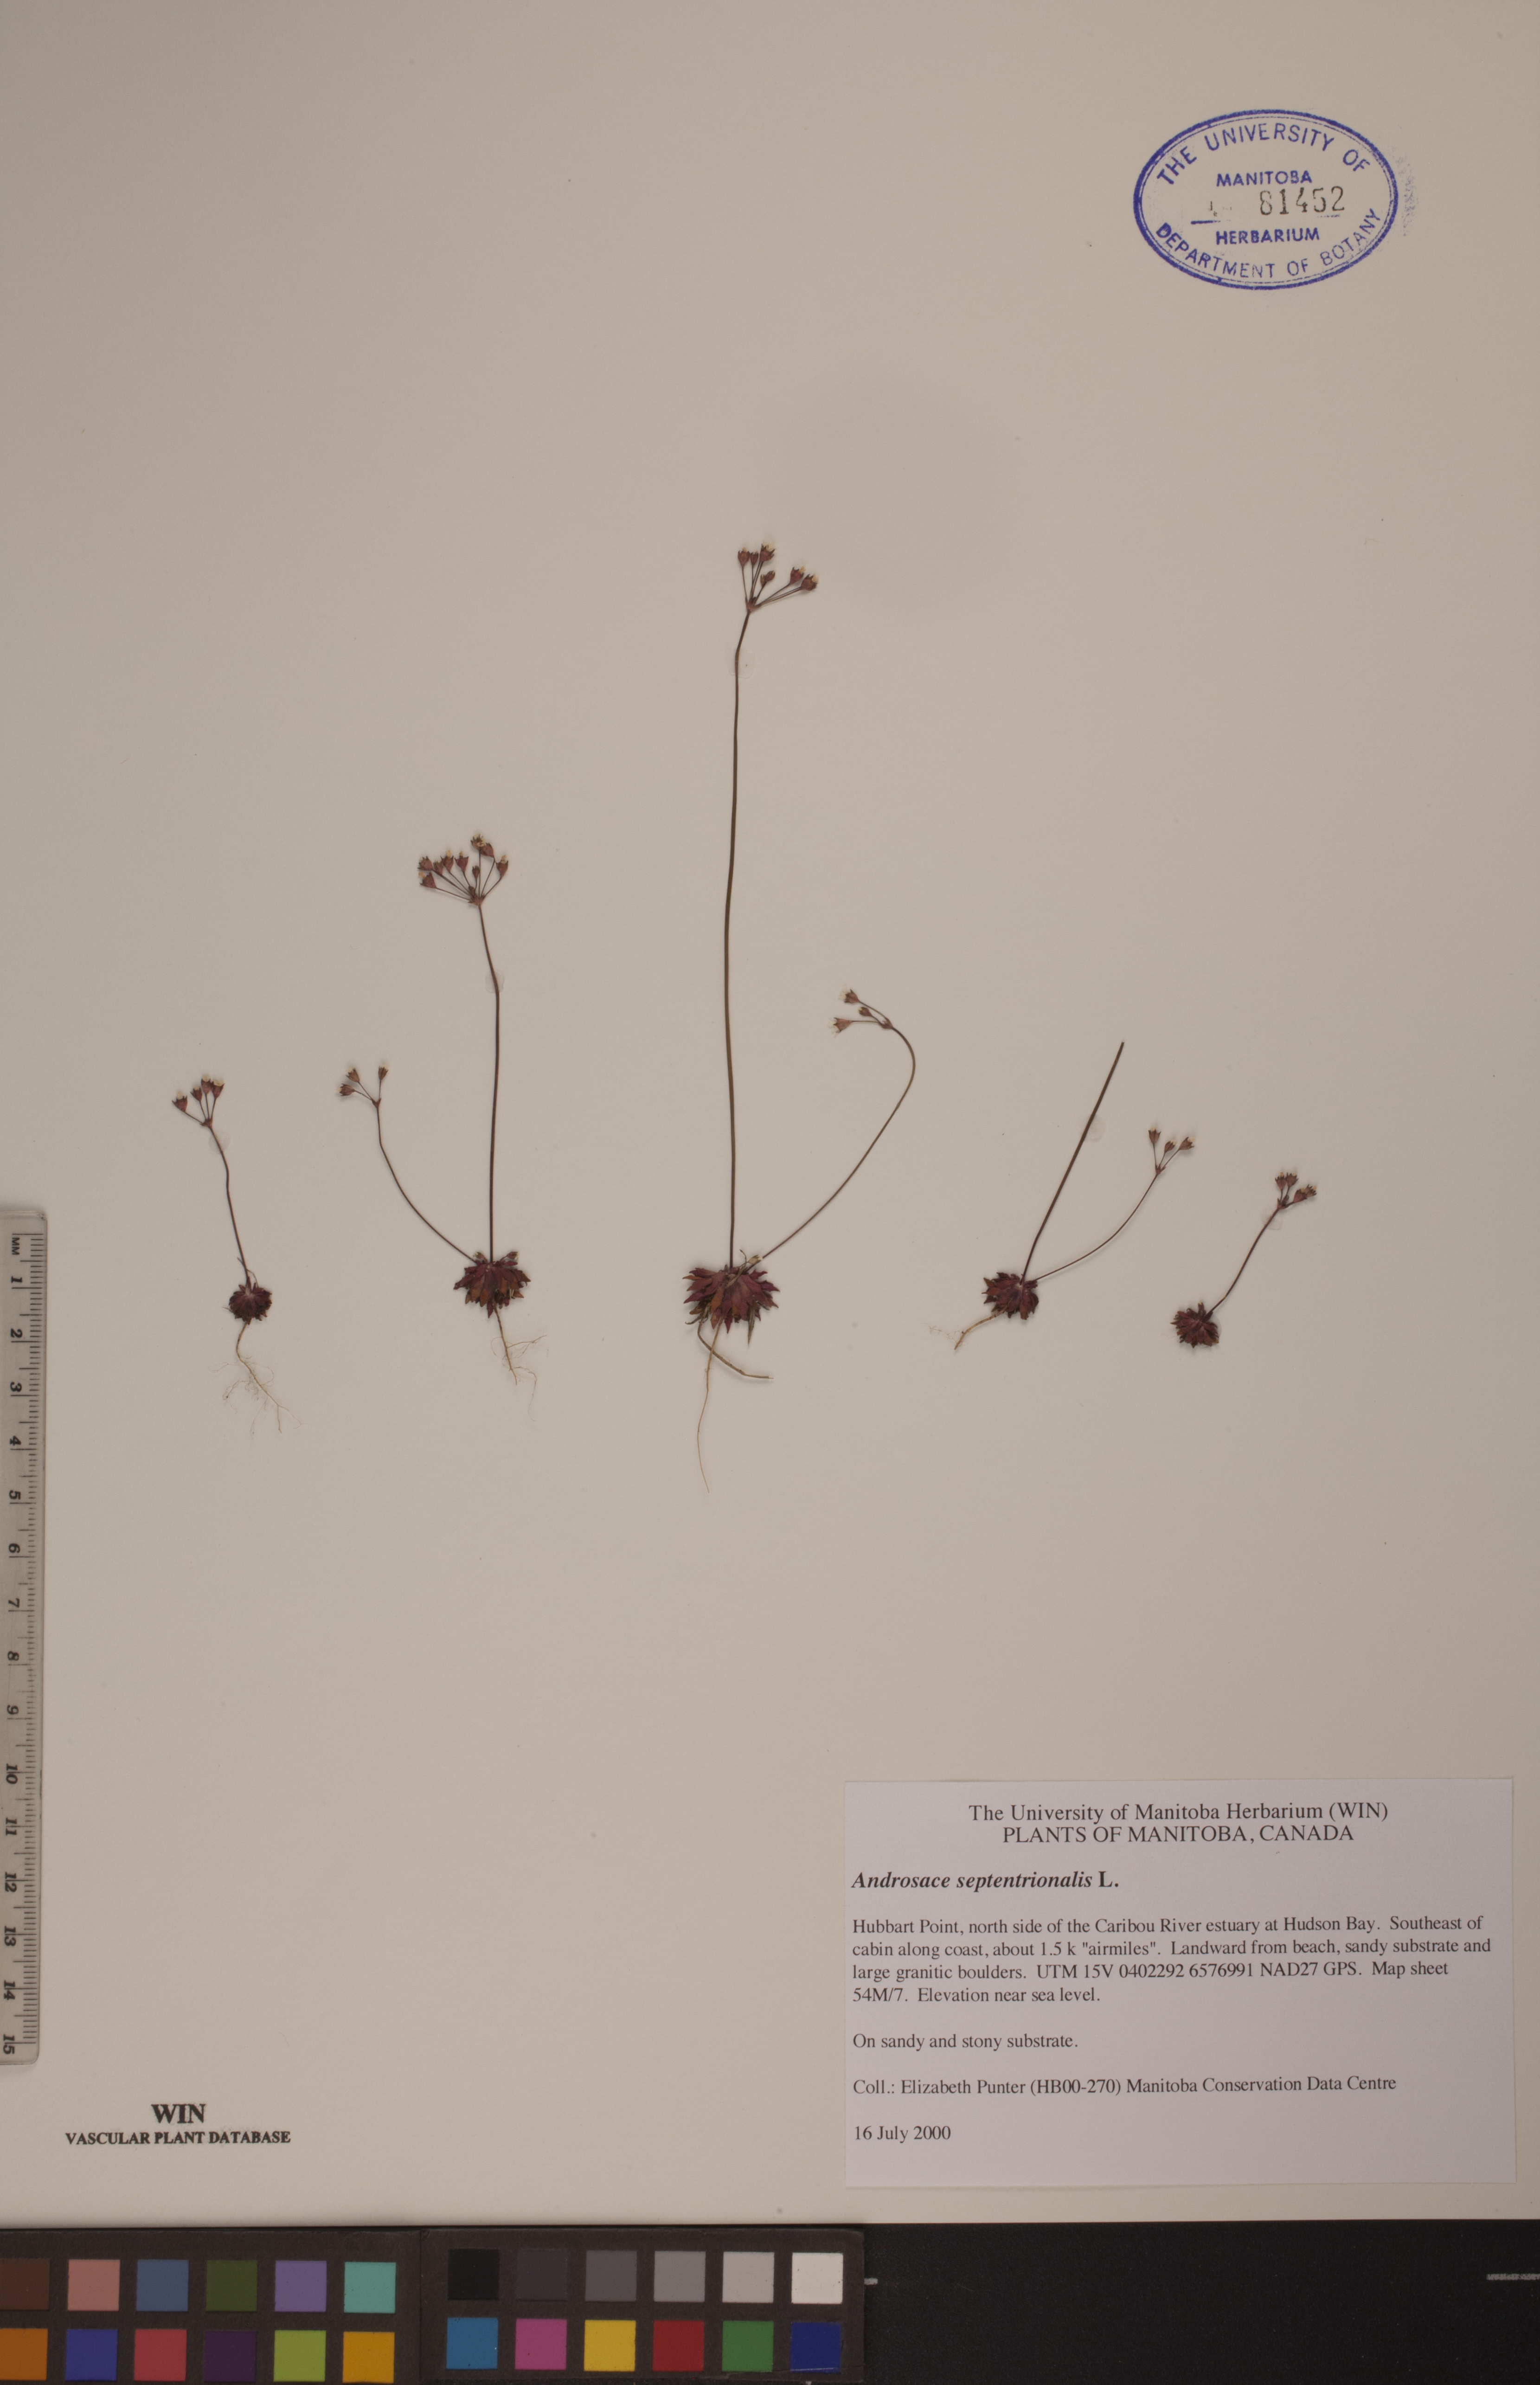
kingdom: Plantae
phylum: Tracheophyta
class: Magnoliopsida
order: Ericales
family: Primulaceae
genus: Androsace
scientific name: Androsace septentrionalis
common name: Hairy northern fairy-candelabra
